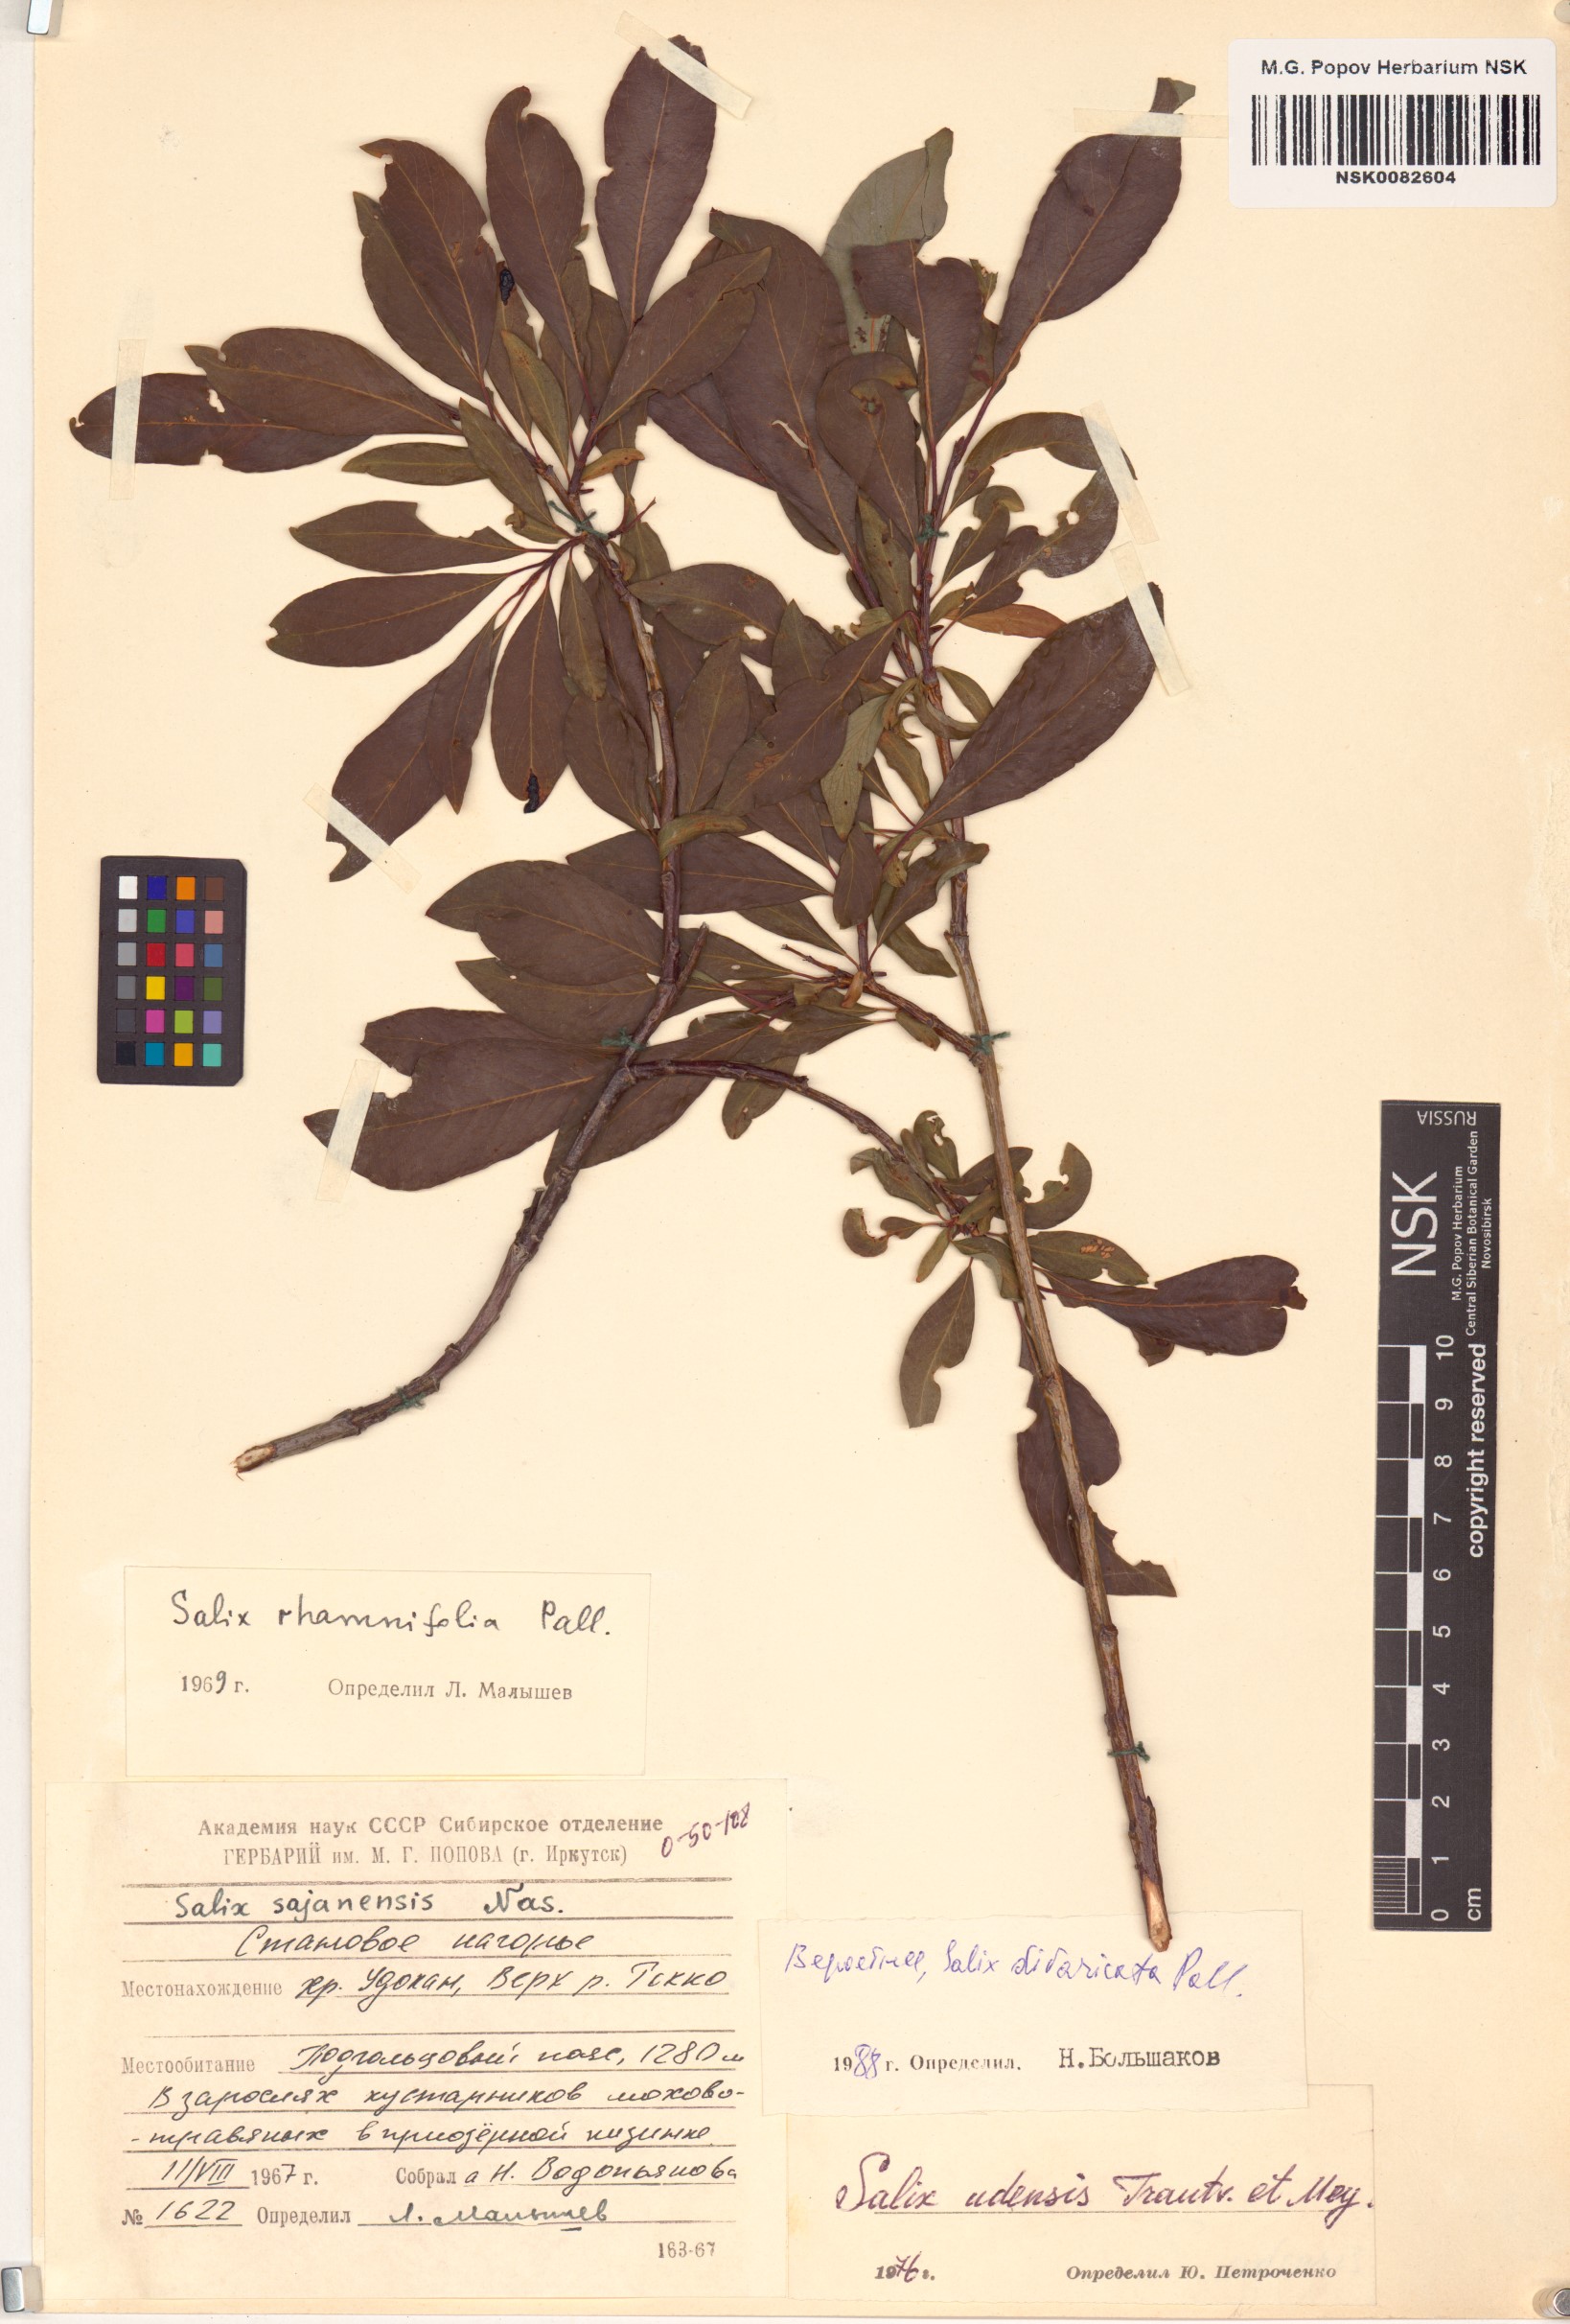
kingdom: Plantae
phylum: Tracheophyta
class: Magnoliopsida
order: Malpighiales
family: Salicaceae
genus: Salix
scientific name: Salix divaricata
